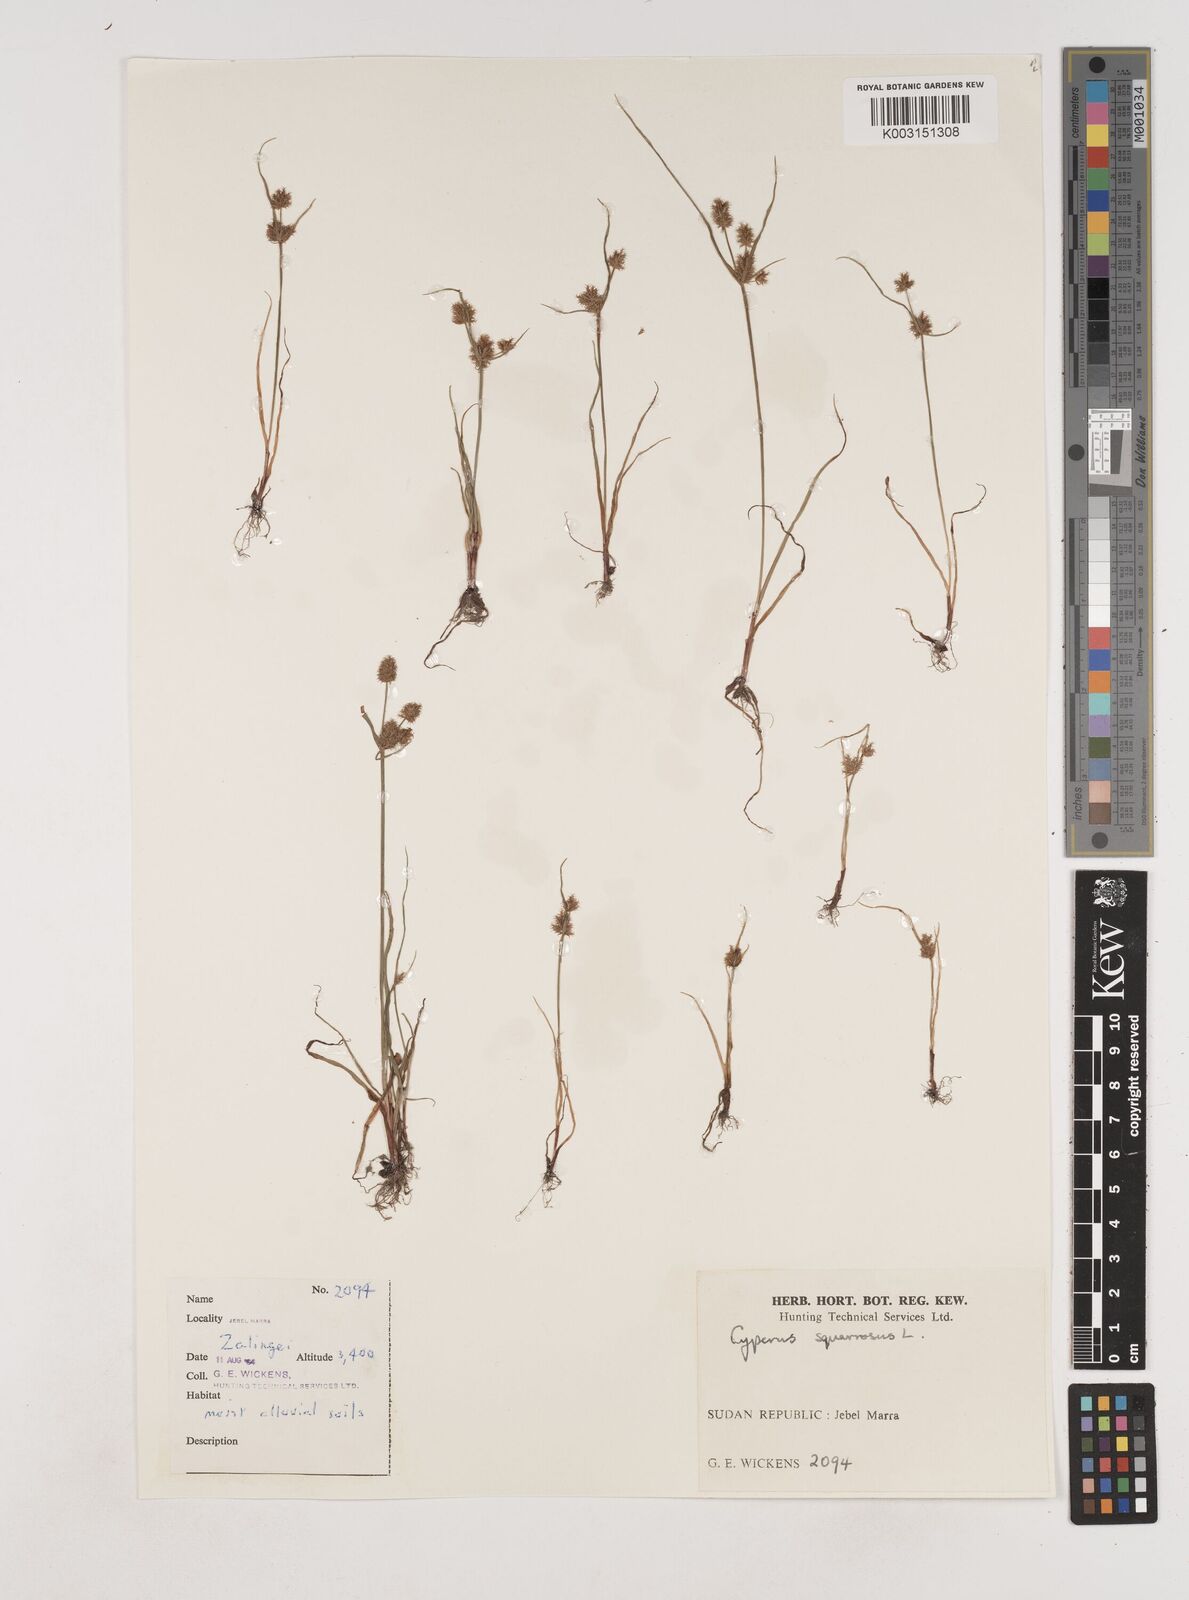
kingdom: Plantae
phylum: Tracheophyta
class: Liliopsida
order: Poales
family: Cyperaceae
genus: Cyperus
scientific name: Cyperus squarrosus
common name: Awned cyperus
